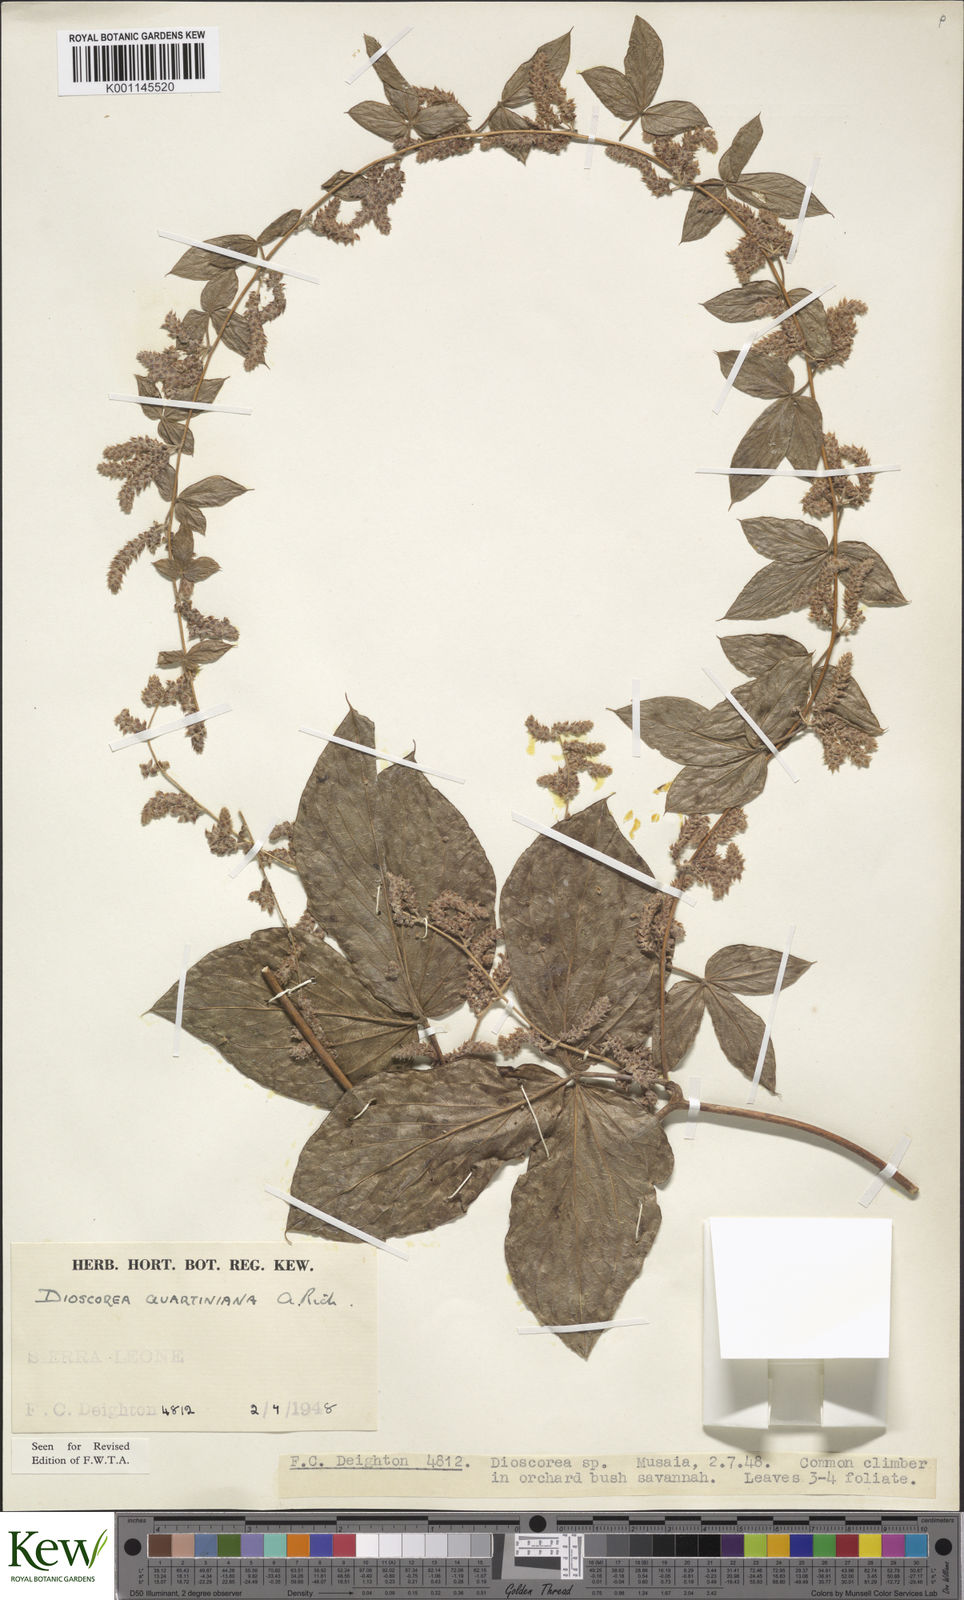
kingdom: Plantae
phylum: Tracheophyta
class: Liliopsida
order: Dioscoreales
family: Dioscoreaceae
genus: Dioscorea
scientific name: Dioscorea quartiniana
